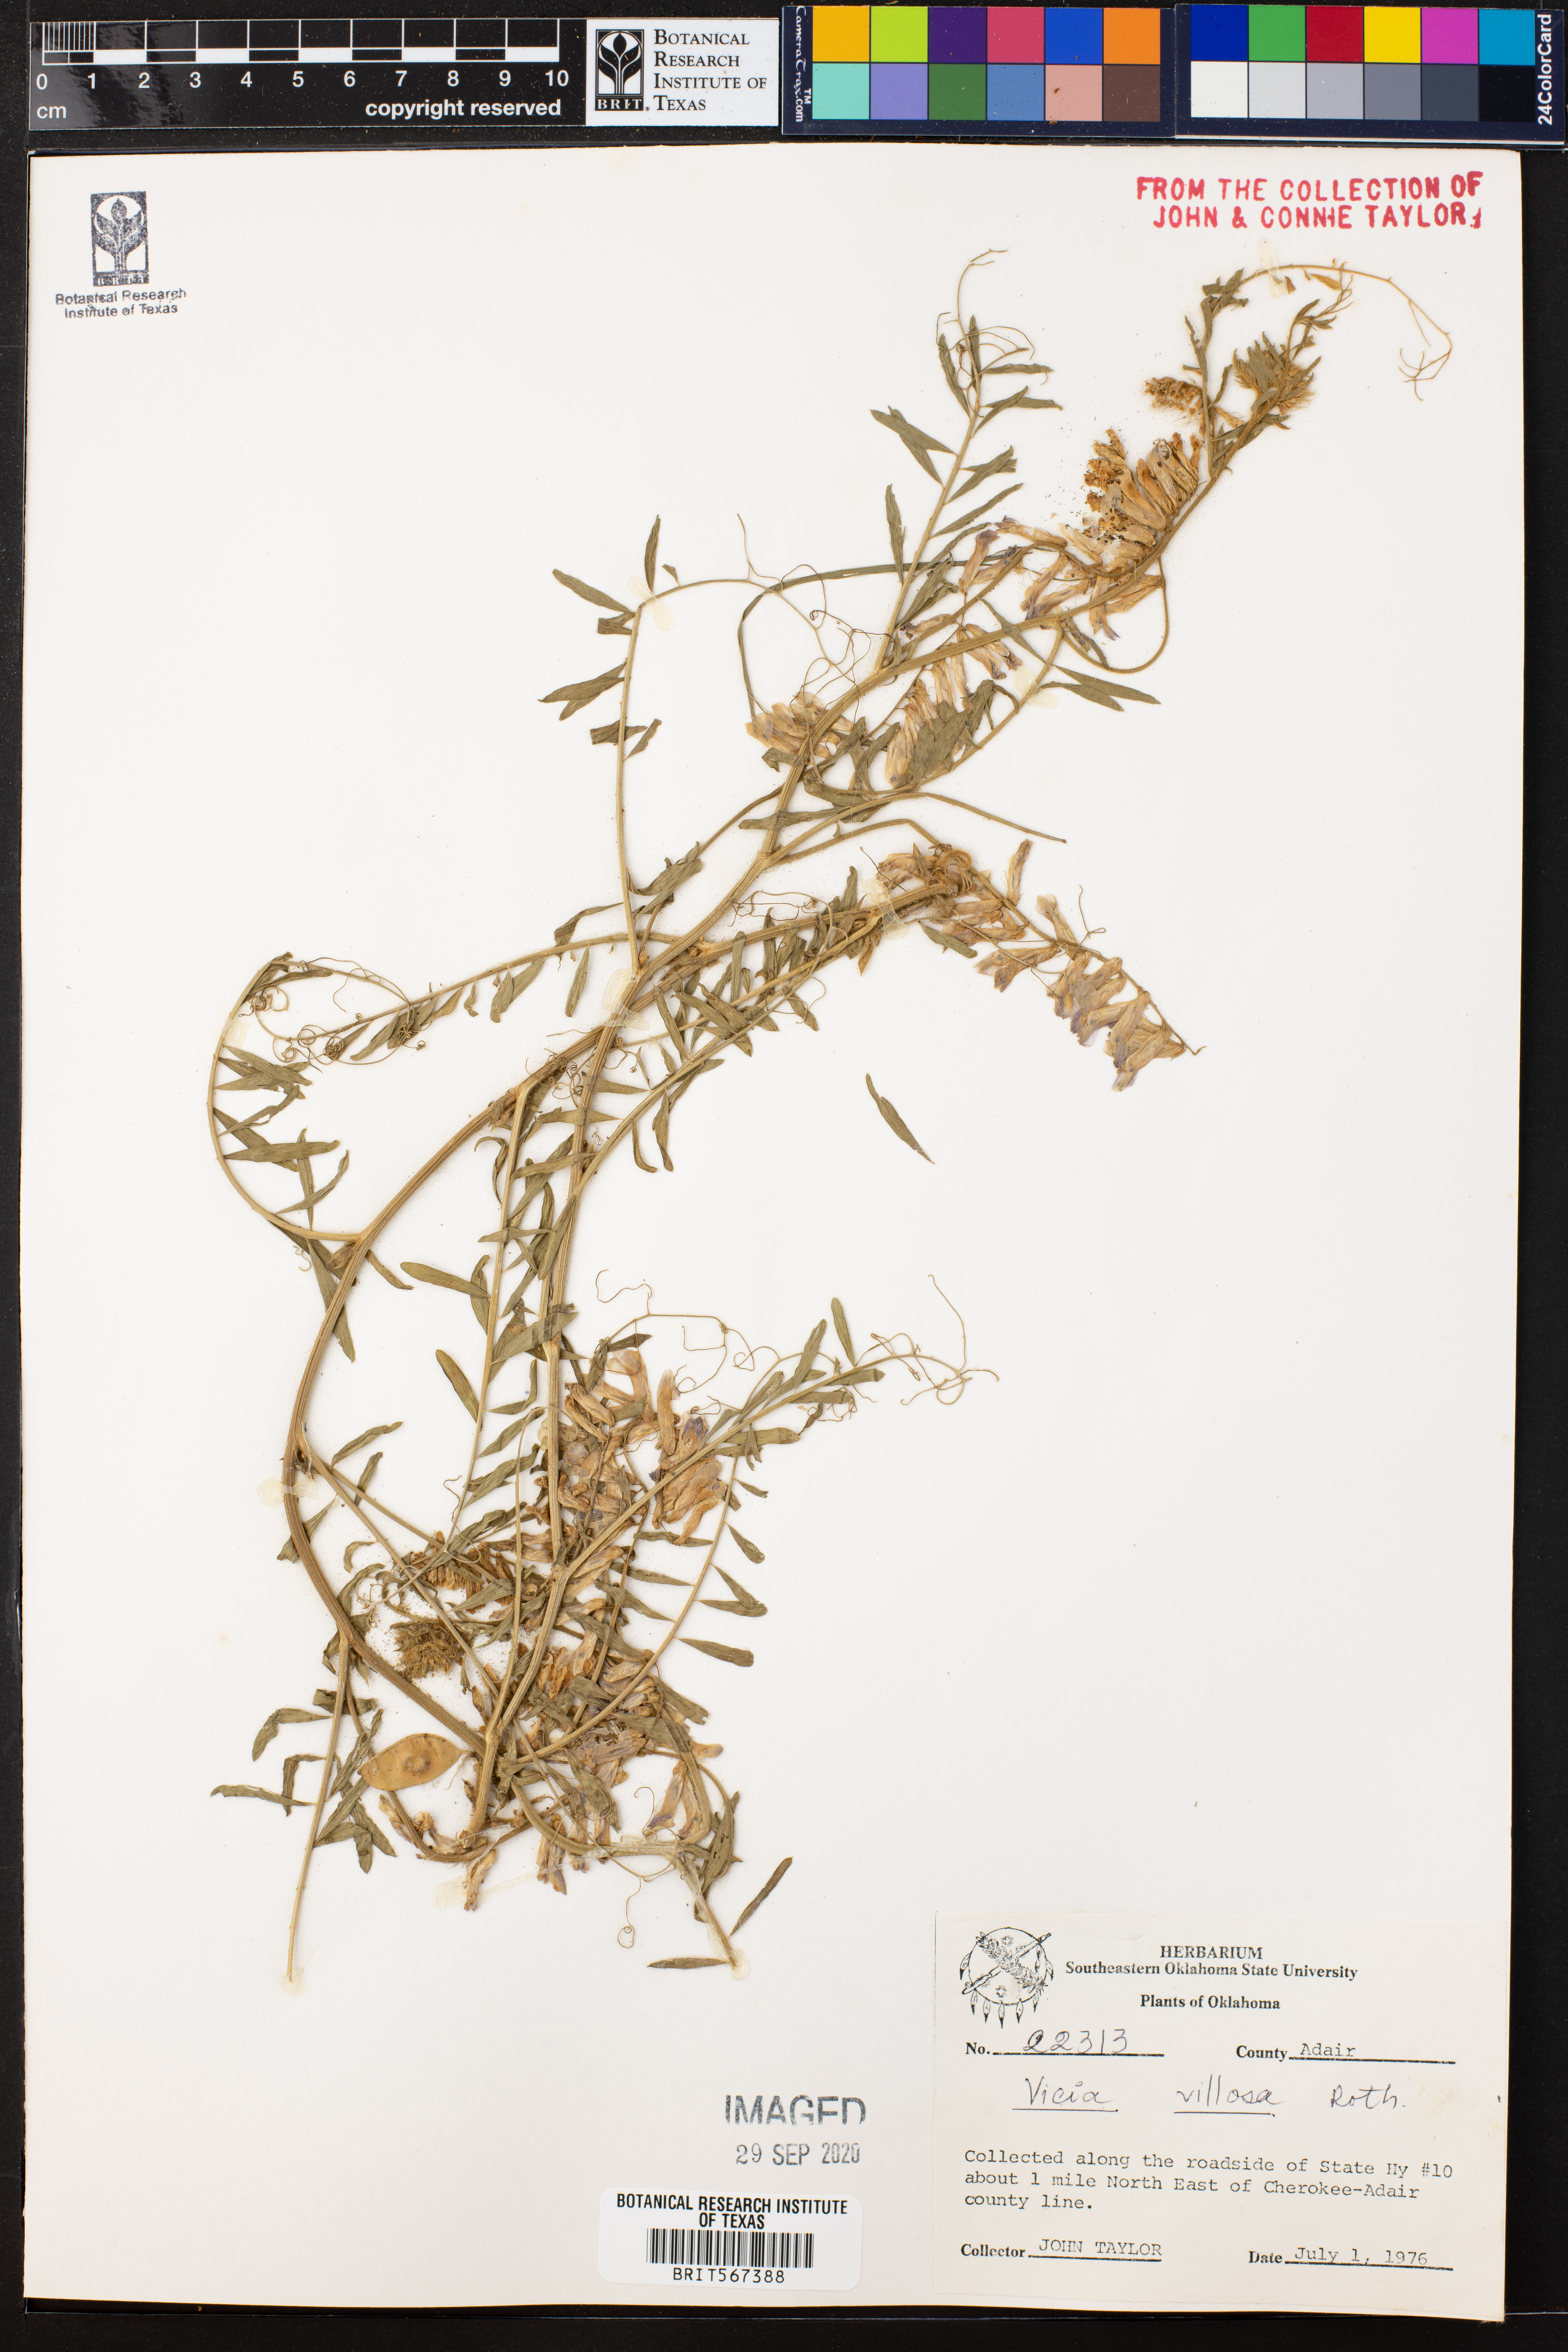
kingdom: Plantae
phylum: Tracheophyta
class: Magnoliopsida
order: Fabales
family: Fabaceae
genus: Vicia
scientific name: Vicia villosa
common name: Fodder vetch
